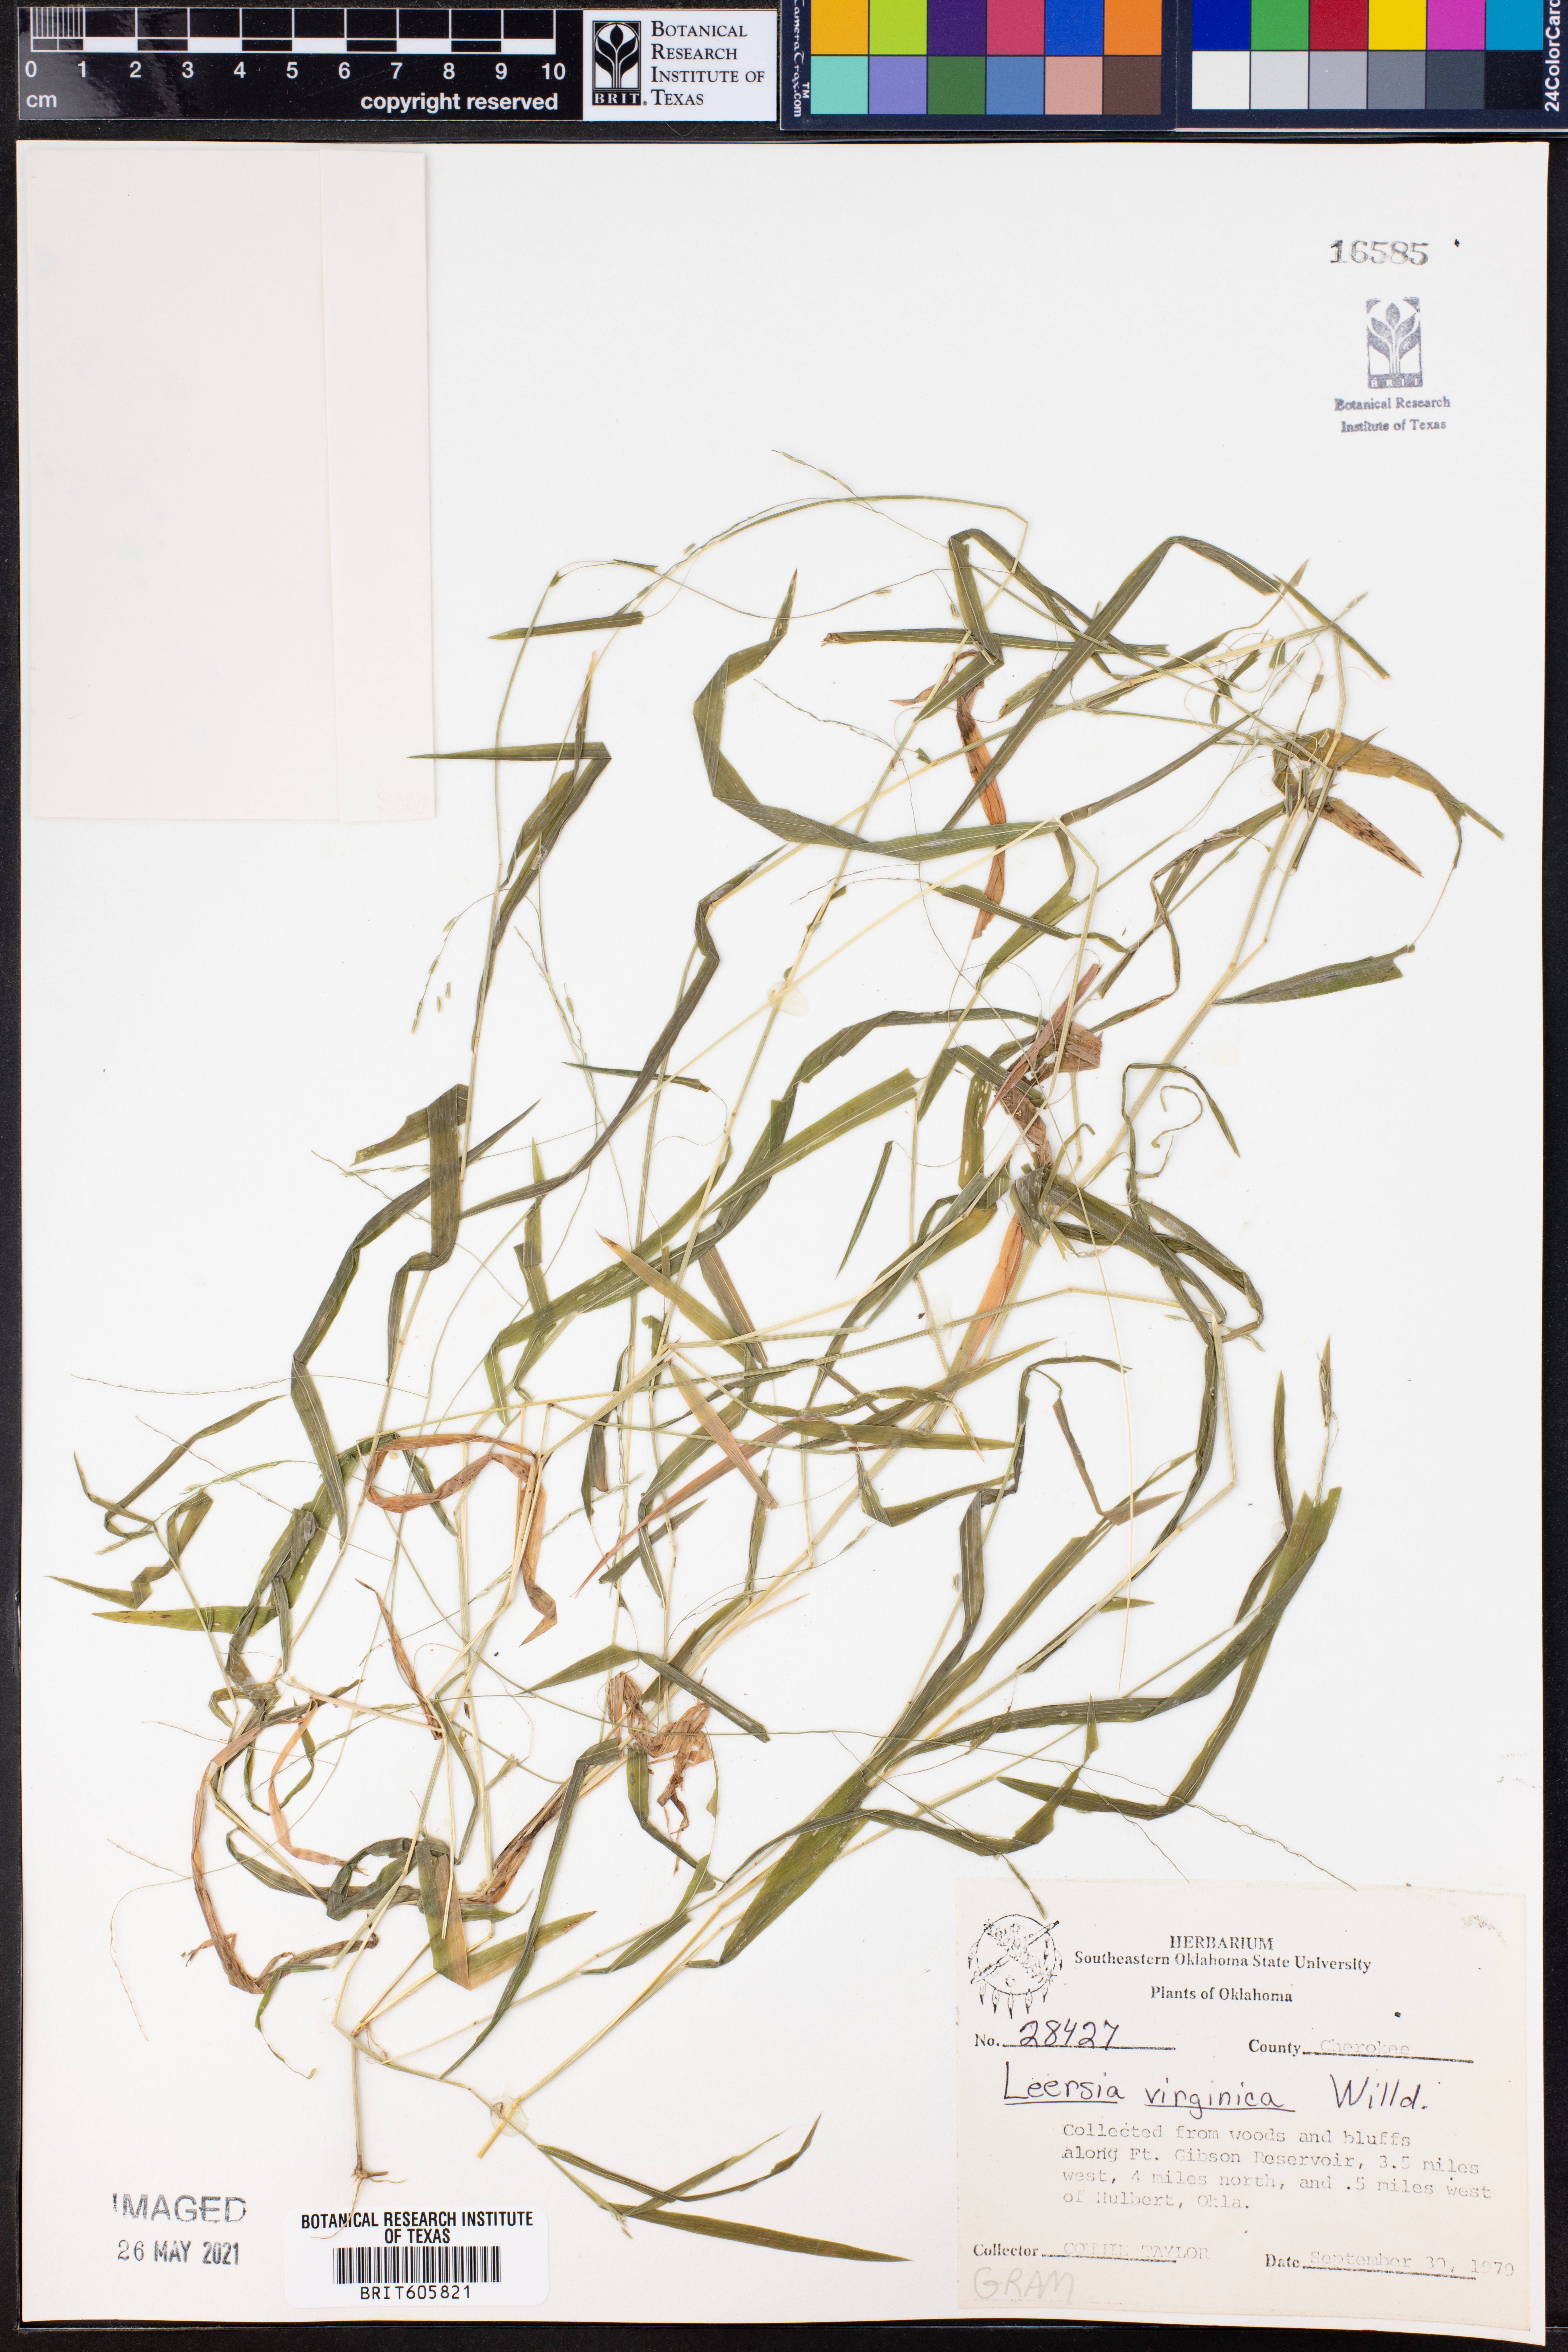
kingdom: Plantae
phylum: Tracheophyta
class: Liliopsida
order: Poales
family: Poaceae
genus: Leersia
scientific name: Leersia virginica
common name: White cutgrass
